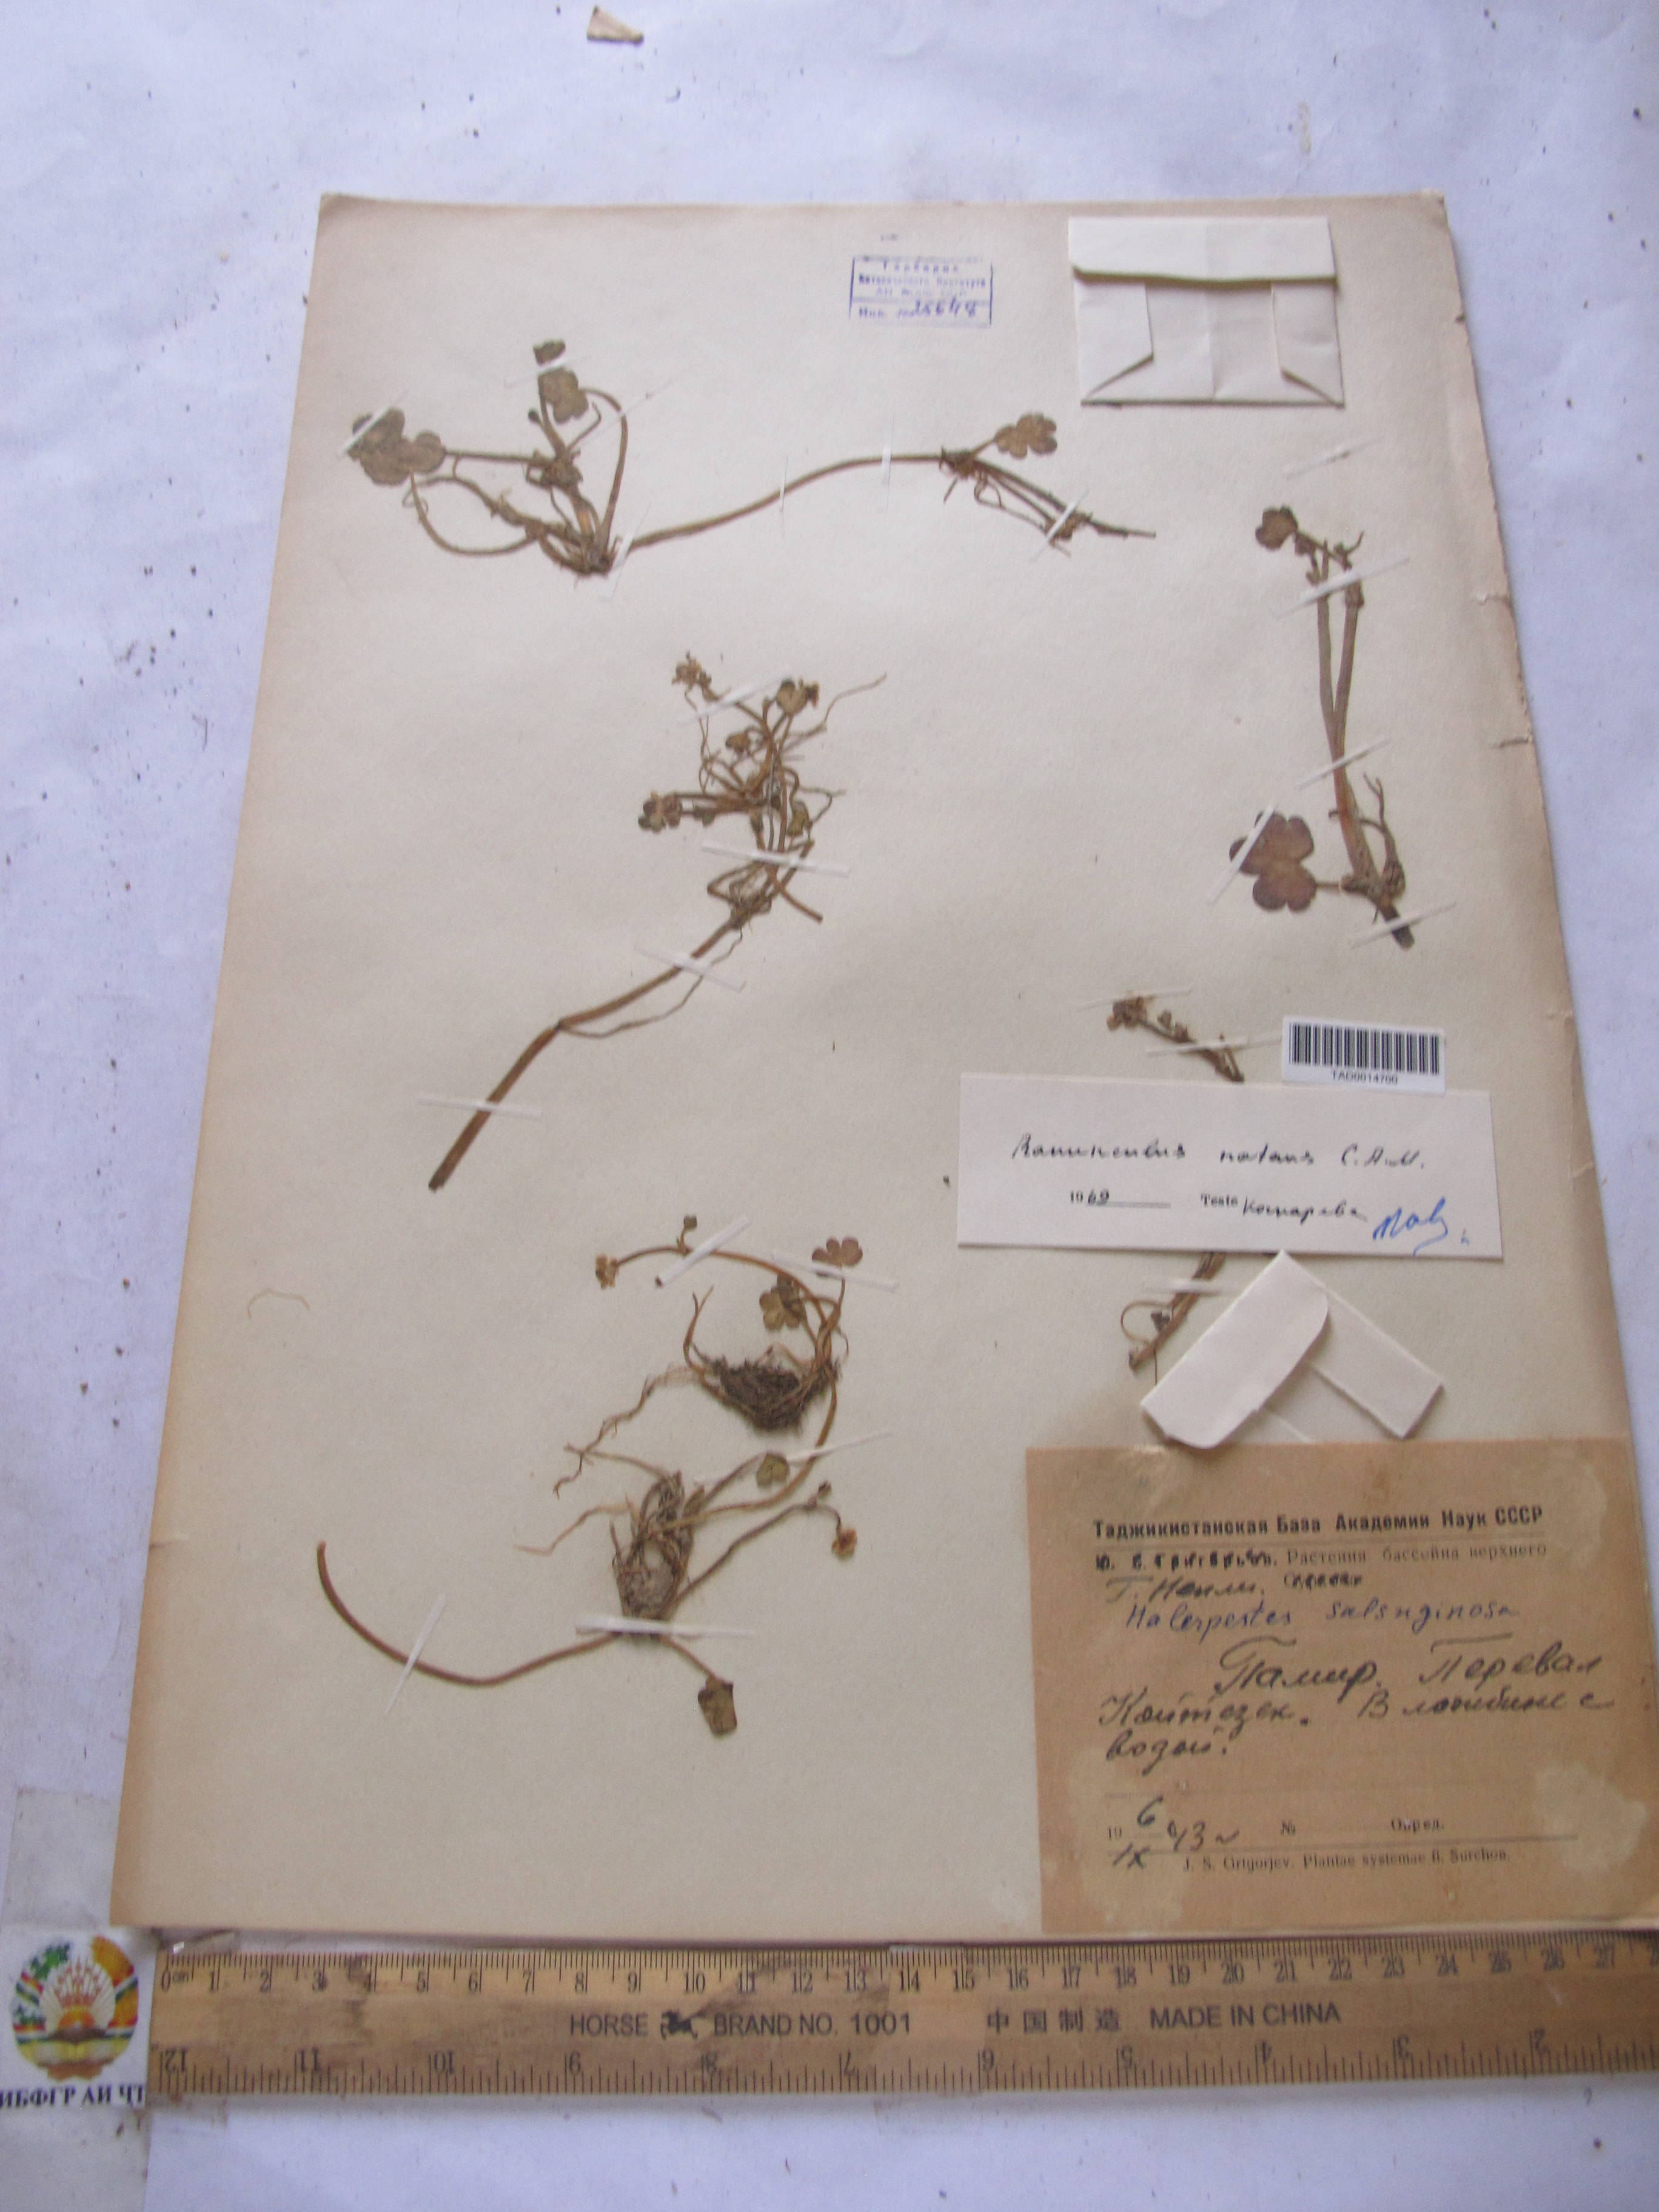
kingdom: Plantae
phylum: Tracheophyta
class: Magnoliopsida
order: Ranunculales
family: Ranunculaceae
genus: Ranunculus
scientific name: Ranunculus natans
